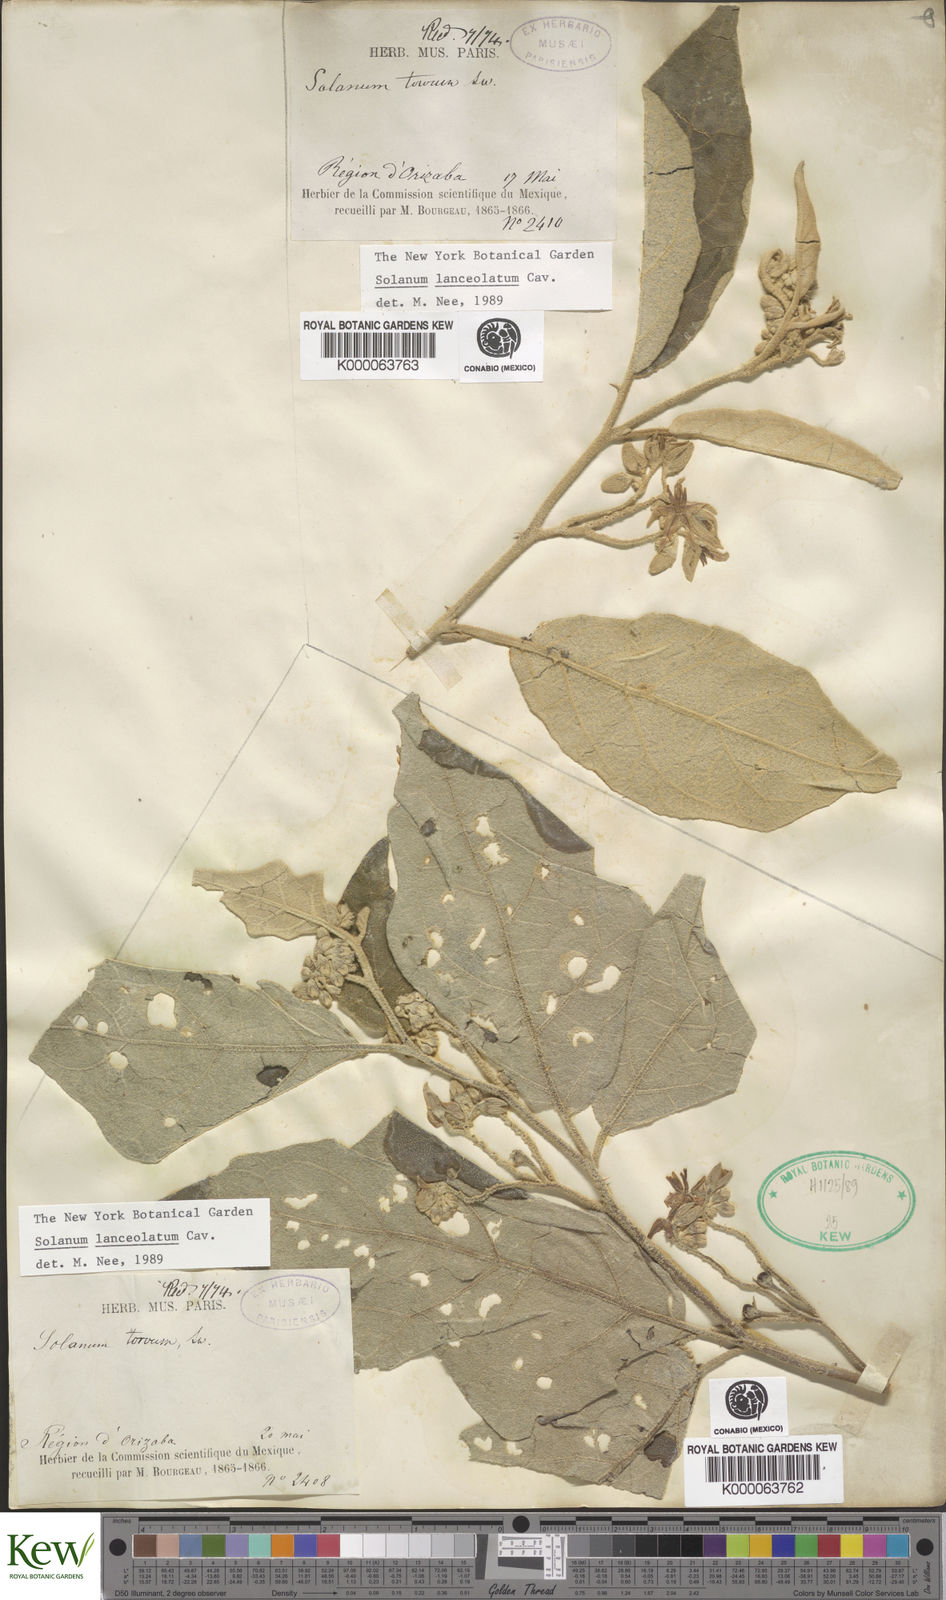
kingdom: Plantae
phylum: Tracheophyta
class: Magnoliopsida
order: Solanales
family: Solanaceae
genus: Solanum
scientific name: Solanum lanceolatum
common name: Orangeberry nightshade
